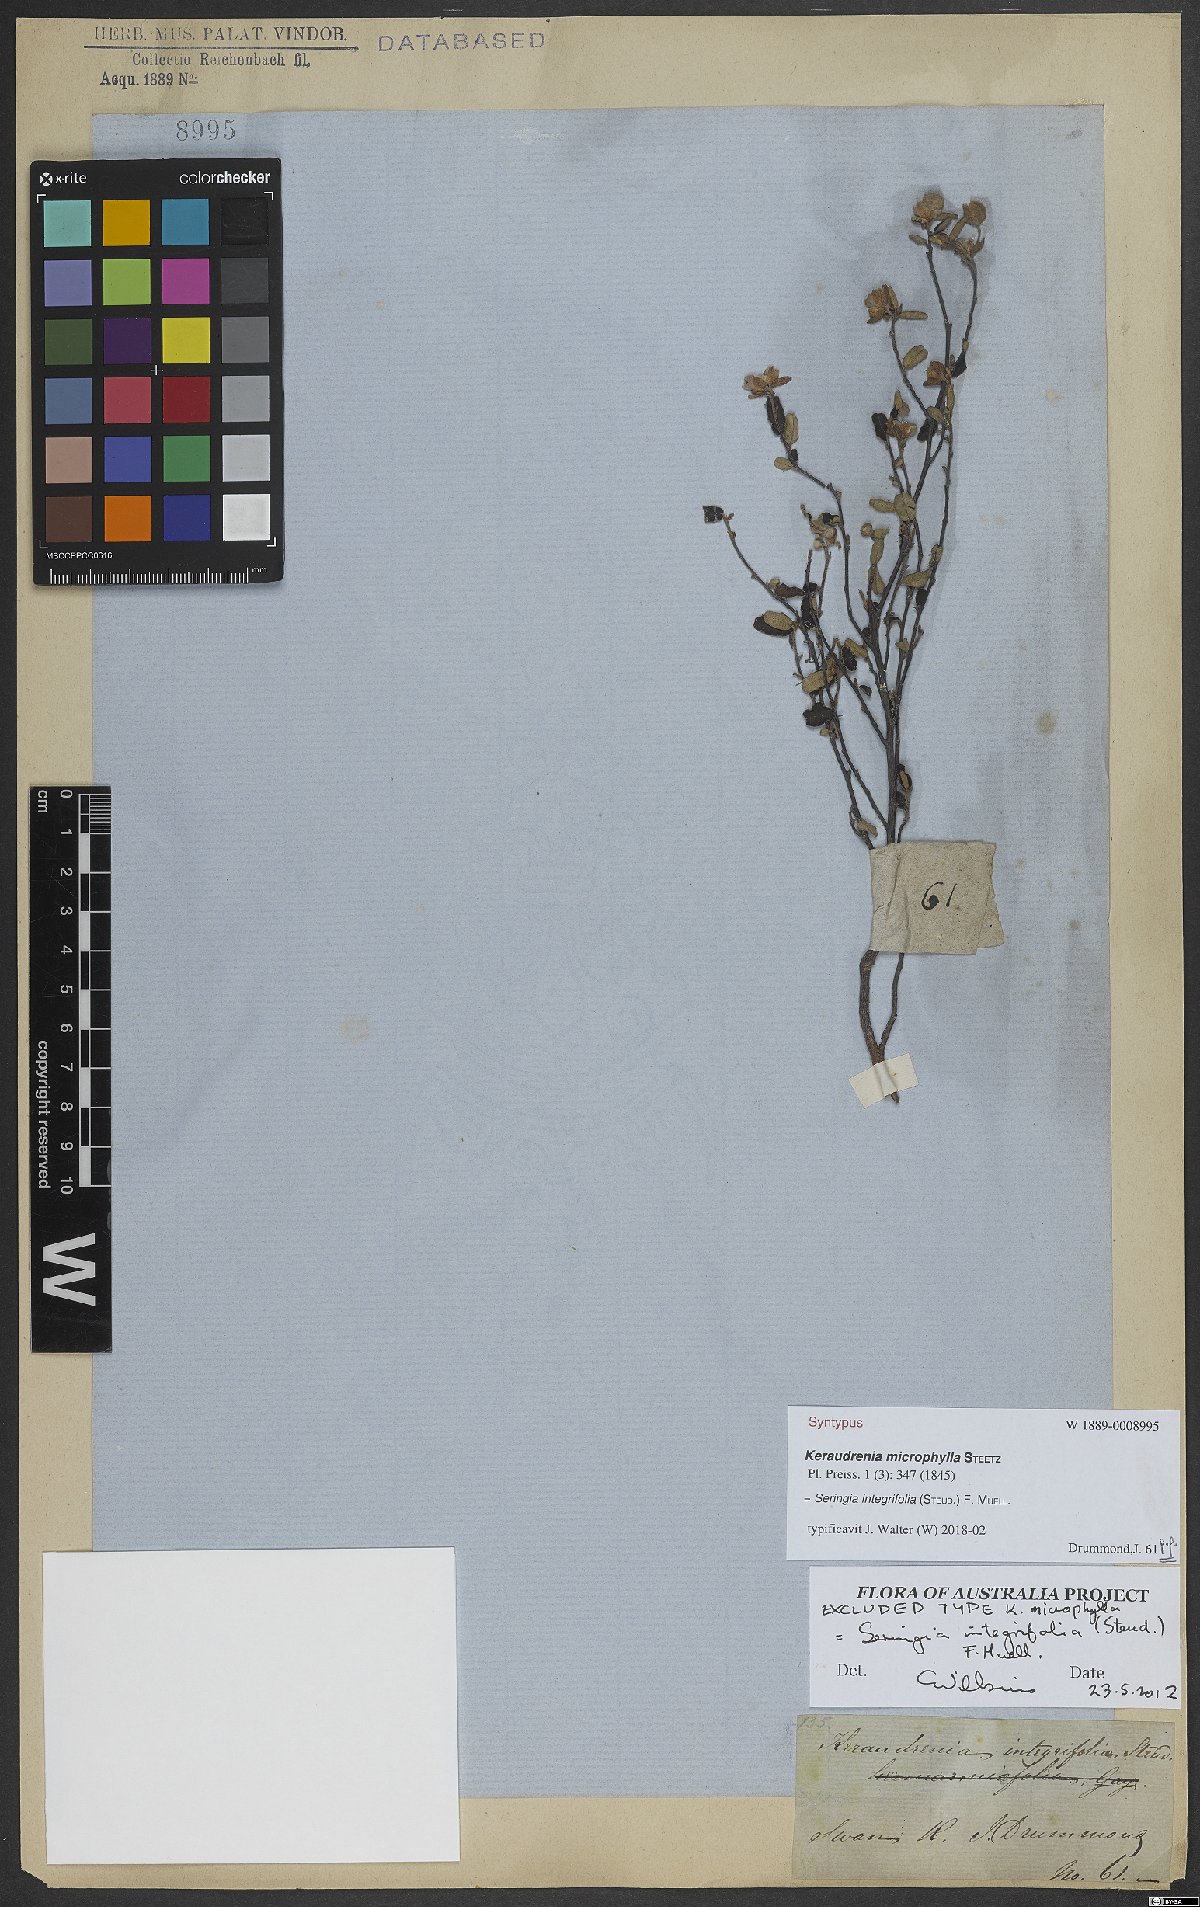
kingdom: Plantae
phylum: Tracheophyta
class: Magnoliopsida
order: Malvales
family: Malvaceae
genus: Seringia
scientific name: Seringia integrifolia
